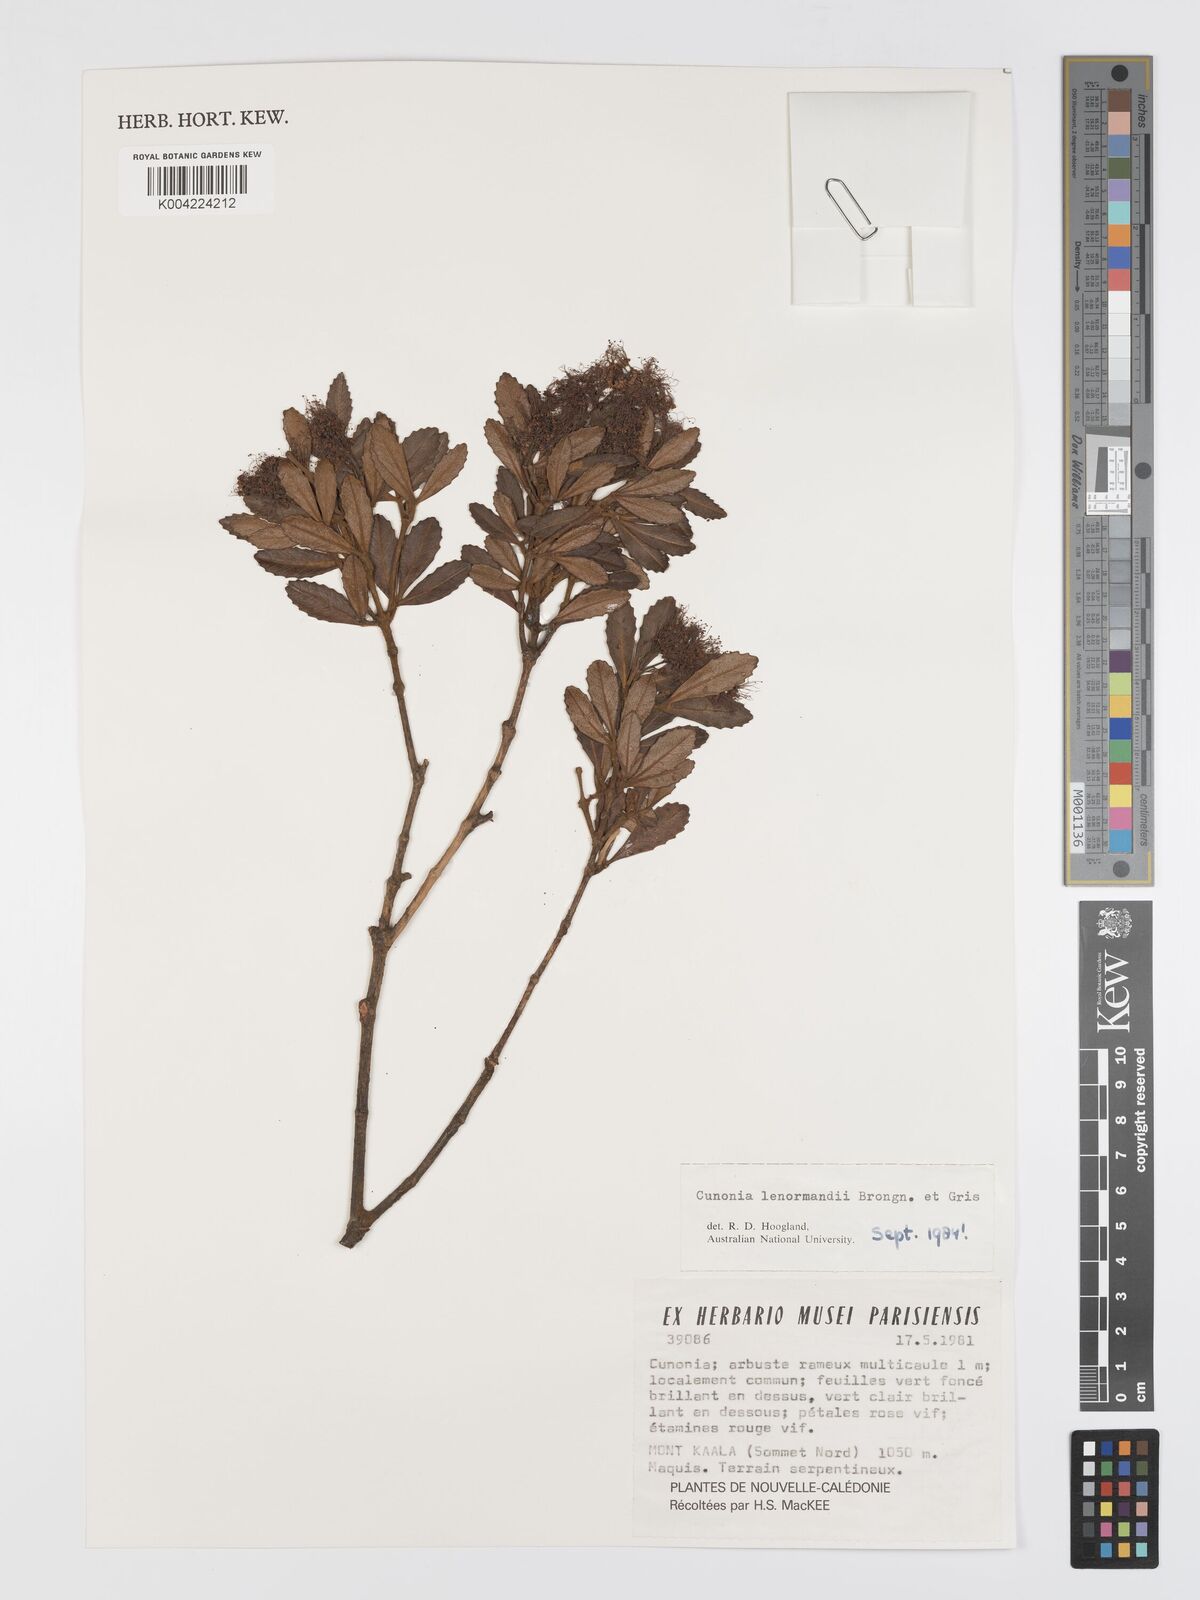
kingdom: Plantae
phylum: Tracheophyta
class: Magnoliopsida
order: Oxalidales
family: Cunoniaceae
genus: Cunonia
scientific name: Cunonia lenormandii
